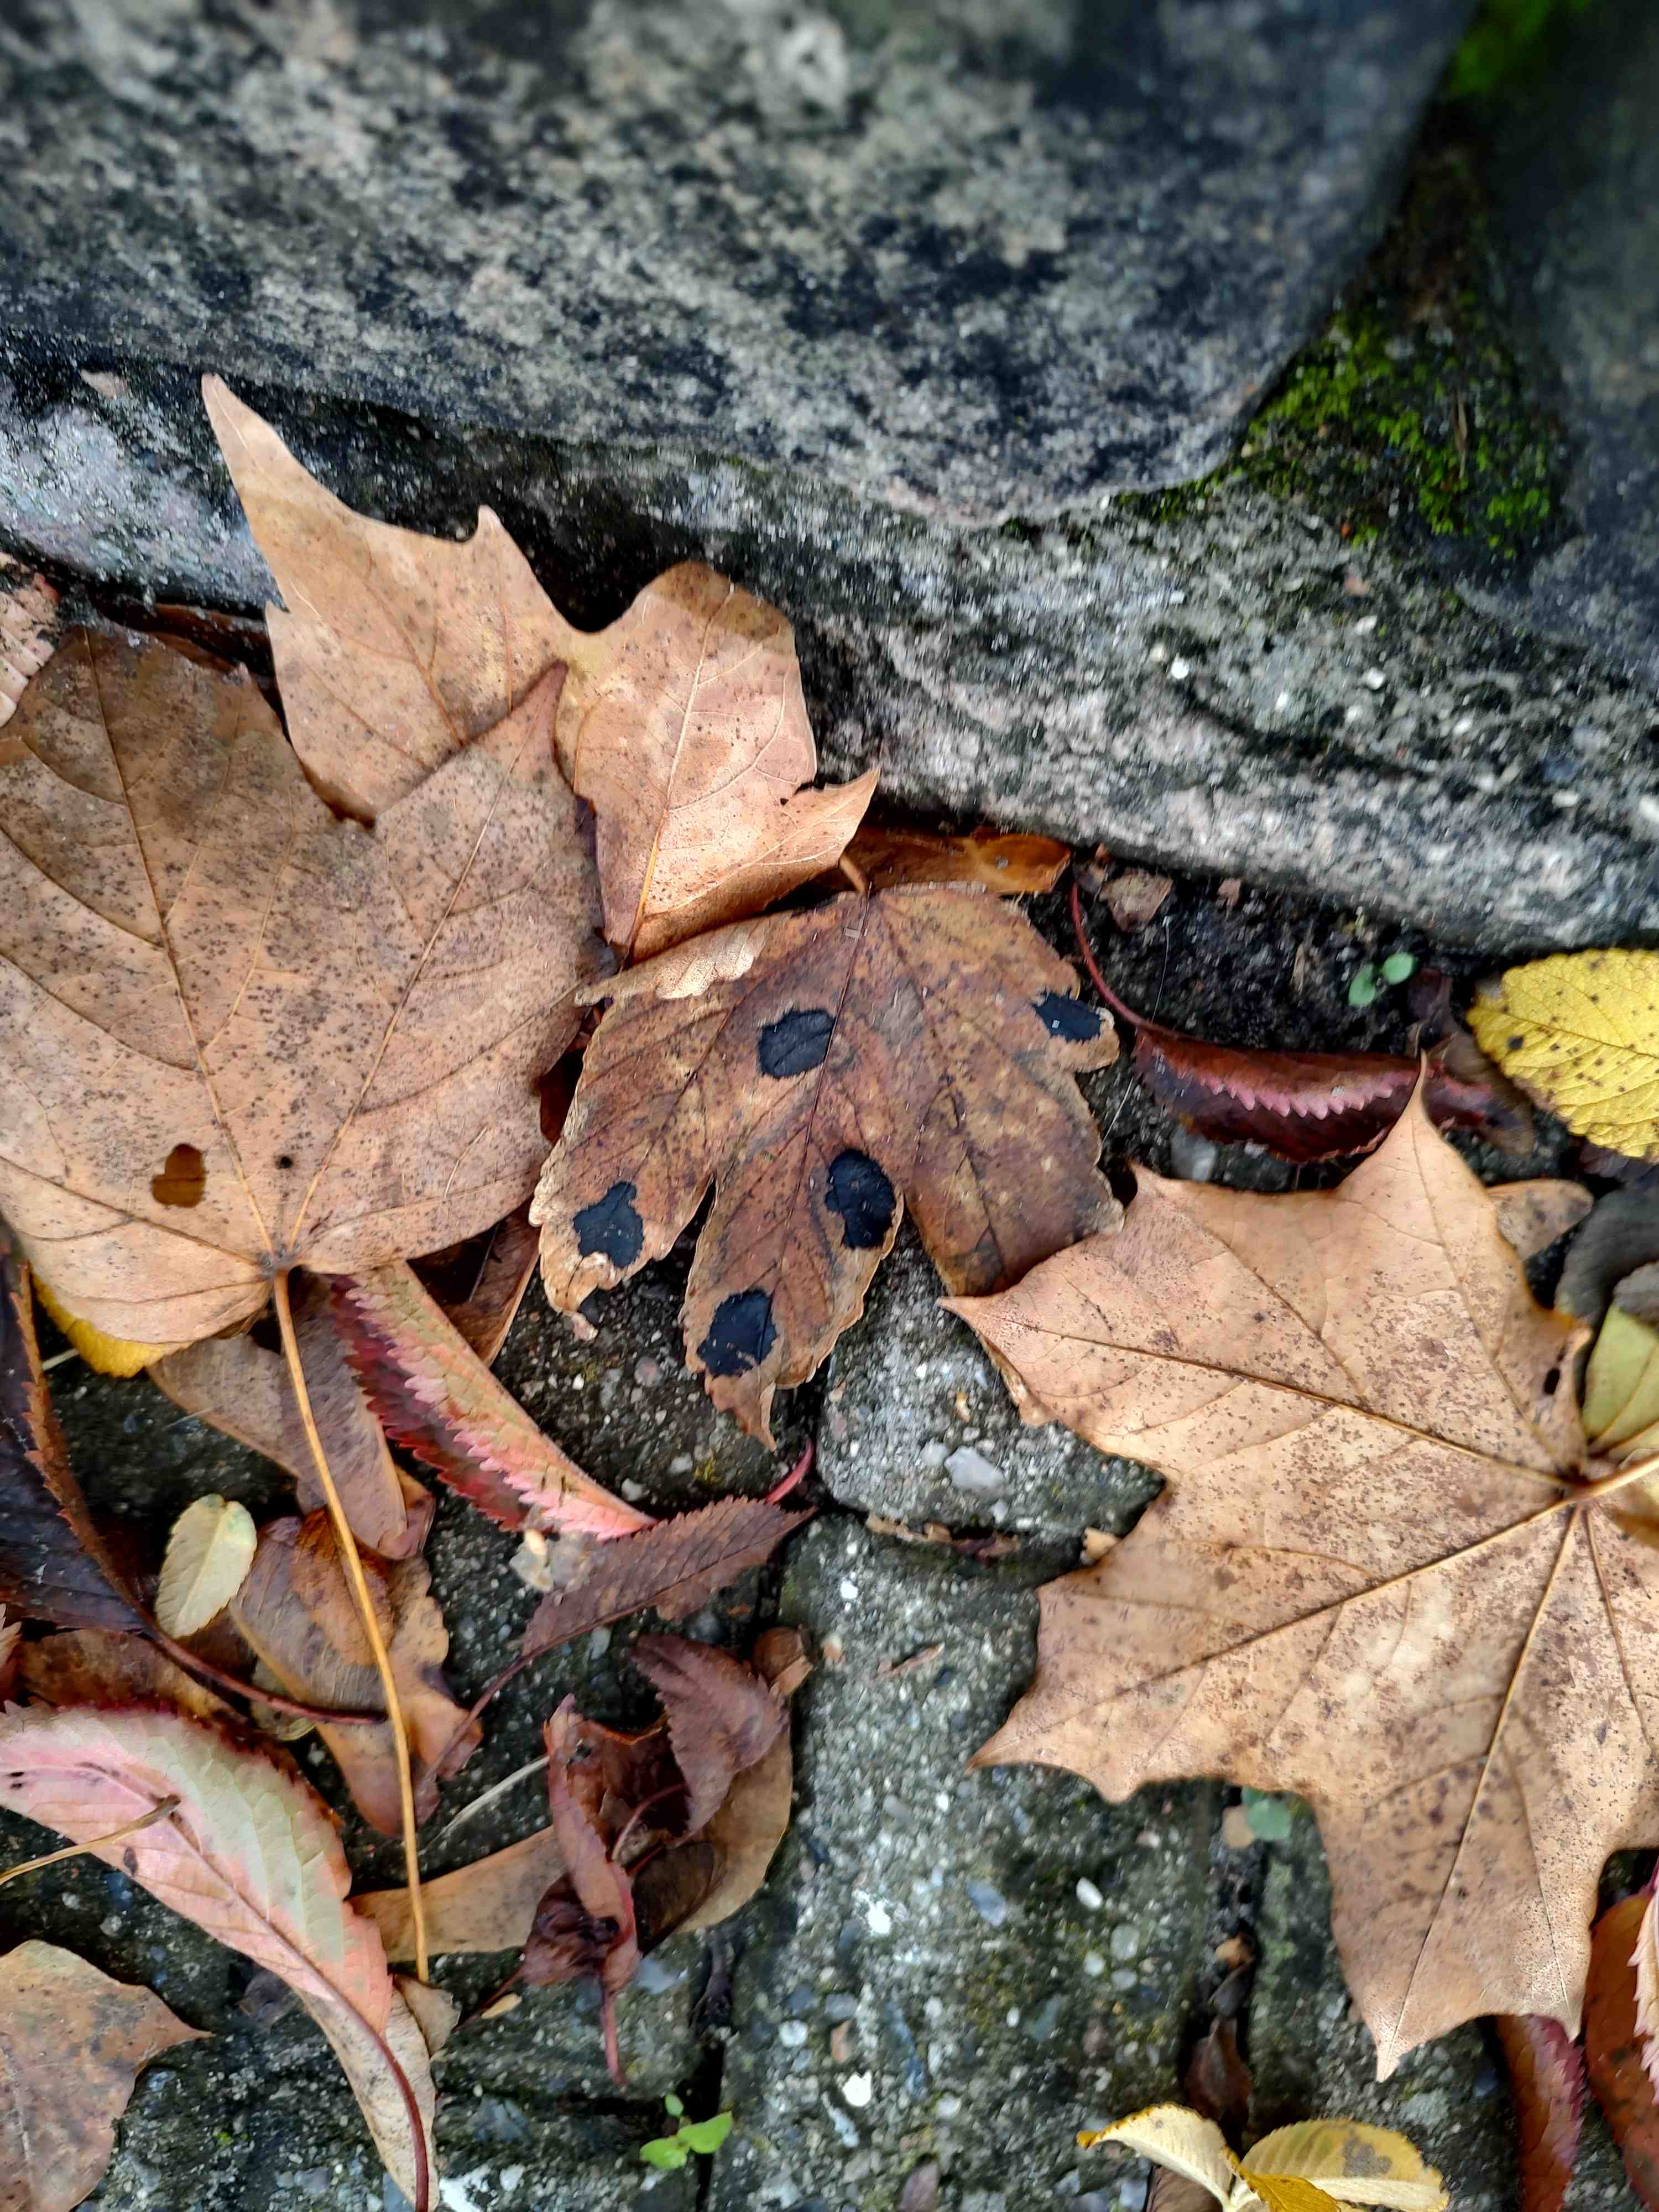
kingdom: Fungi
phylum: Ascomycota
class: Leotiomycetes
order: Rhytismatales
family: Rhytismataceae
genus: Rhytisma
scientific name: Rhytisma acerinum
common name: ahorn-rynkeplet
